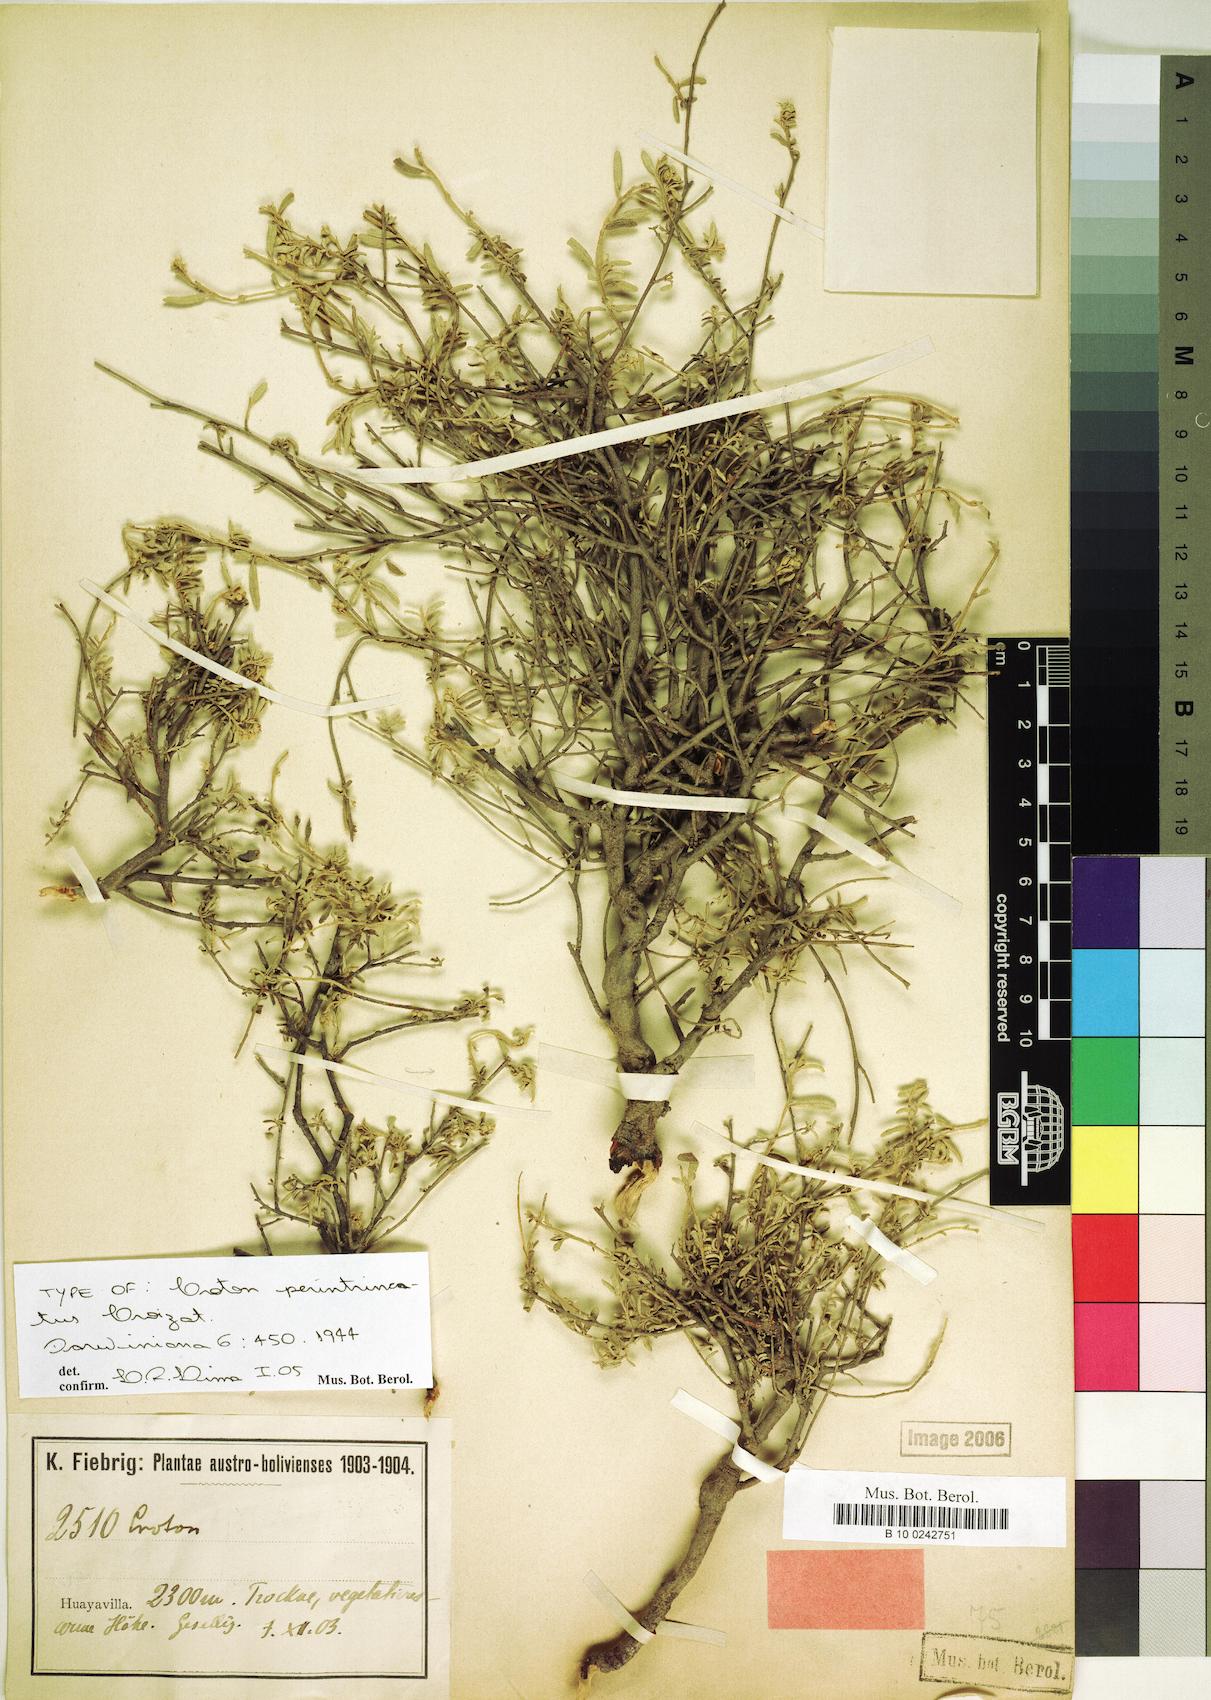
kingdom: Plantae
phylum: Tracheophyta
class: Magnoliopsida
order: Malpighiales
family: Euphorbiaceae
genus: Croton
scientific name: Croton perintricatus
